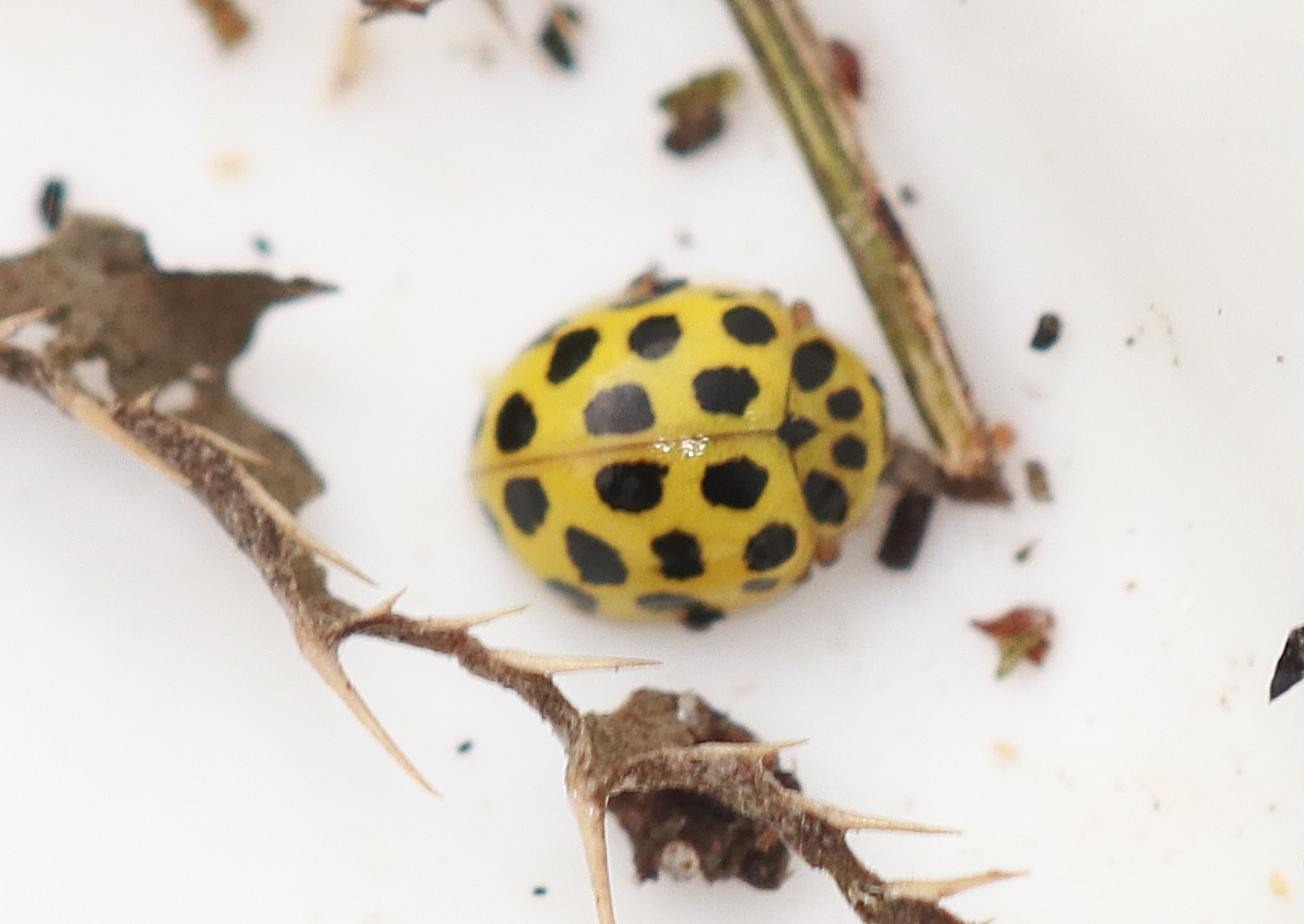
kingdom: Animalia
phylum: Arthropoda
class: Insecta
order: Coleoptera
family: Coccinellidae
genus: Psyllobora
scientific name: Psyllobora vigintiduopunctata
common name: Toogtyveplettet mariehøne
